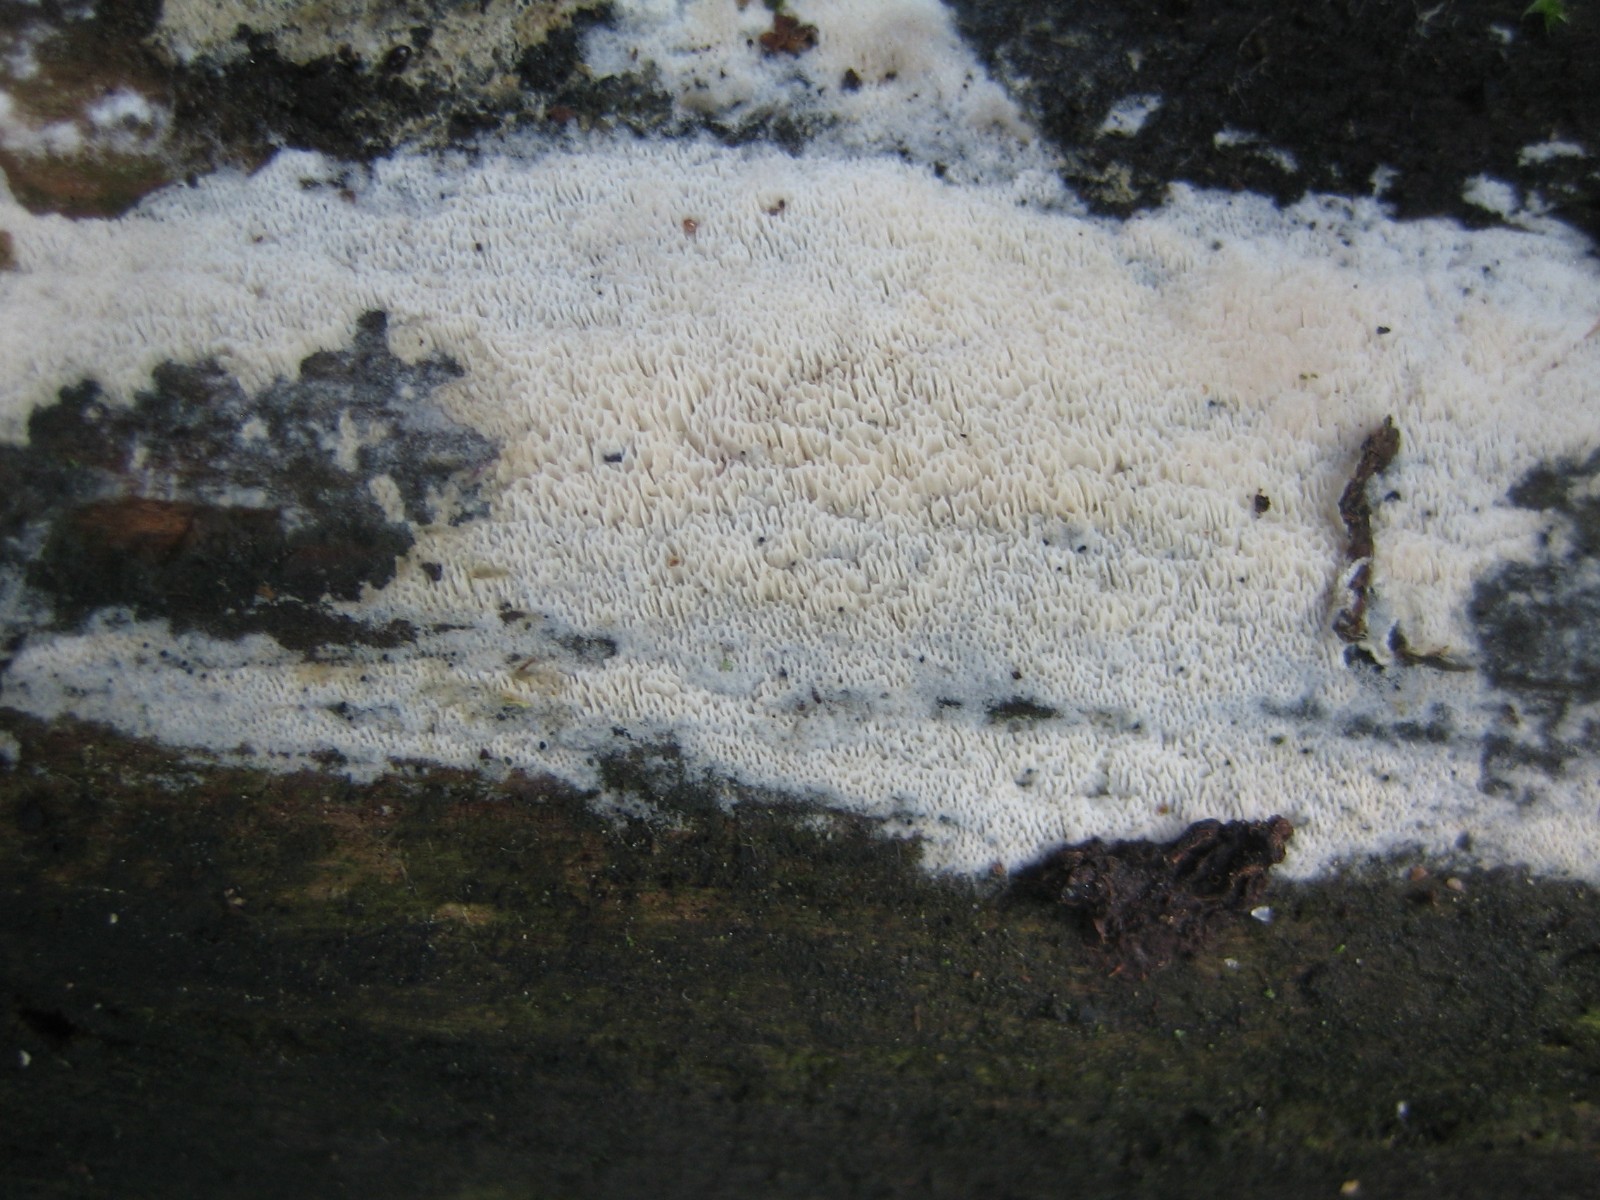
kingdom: Fungi
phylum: Basidiomycota
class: Agaricomycetes
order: Hymenochaetales
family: Schizoporaceae
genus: Schizopora
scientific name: Schizopora paradoxa
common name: hvid tandsvamp
